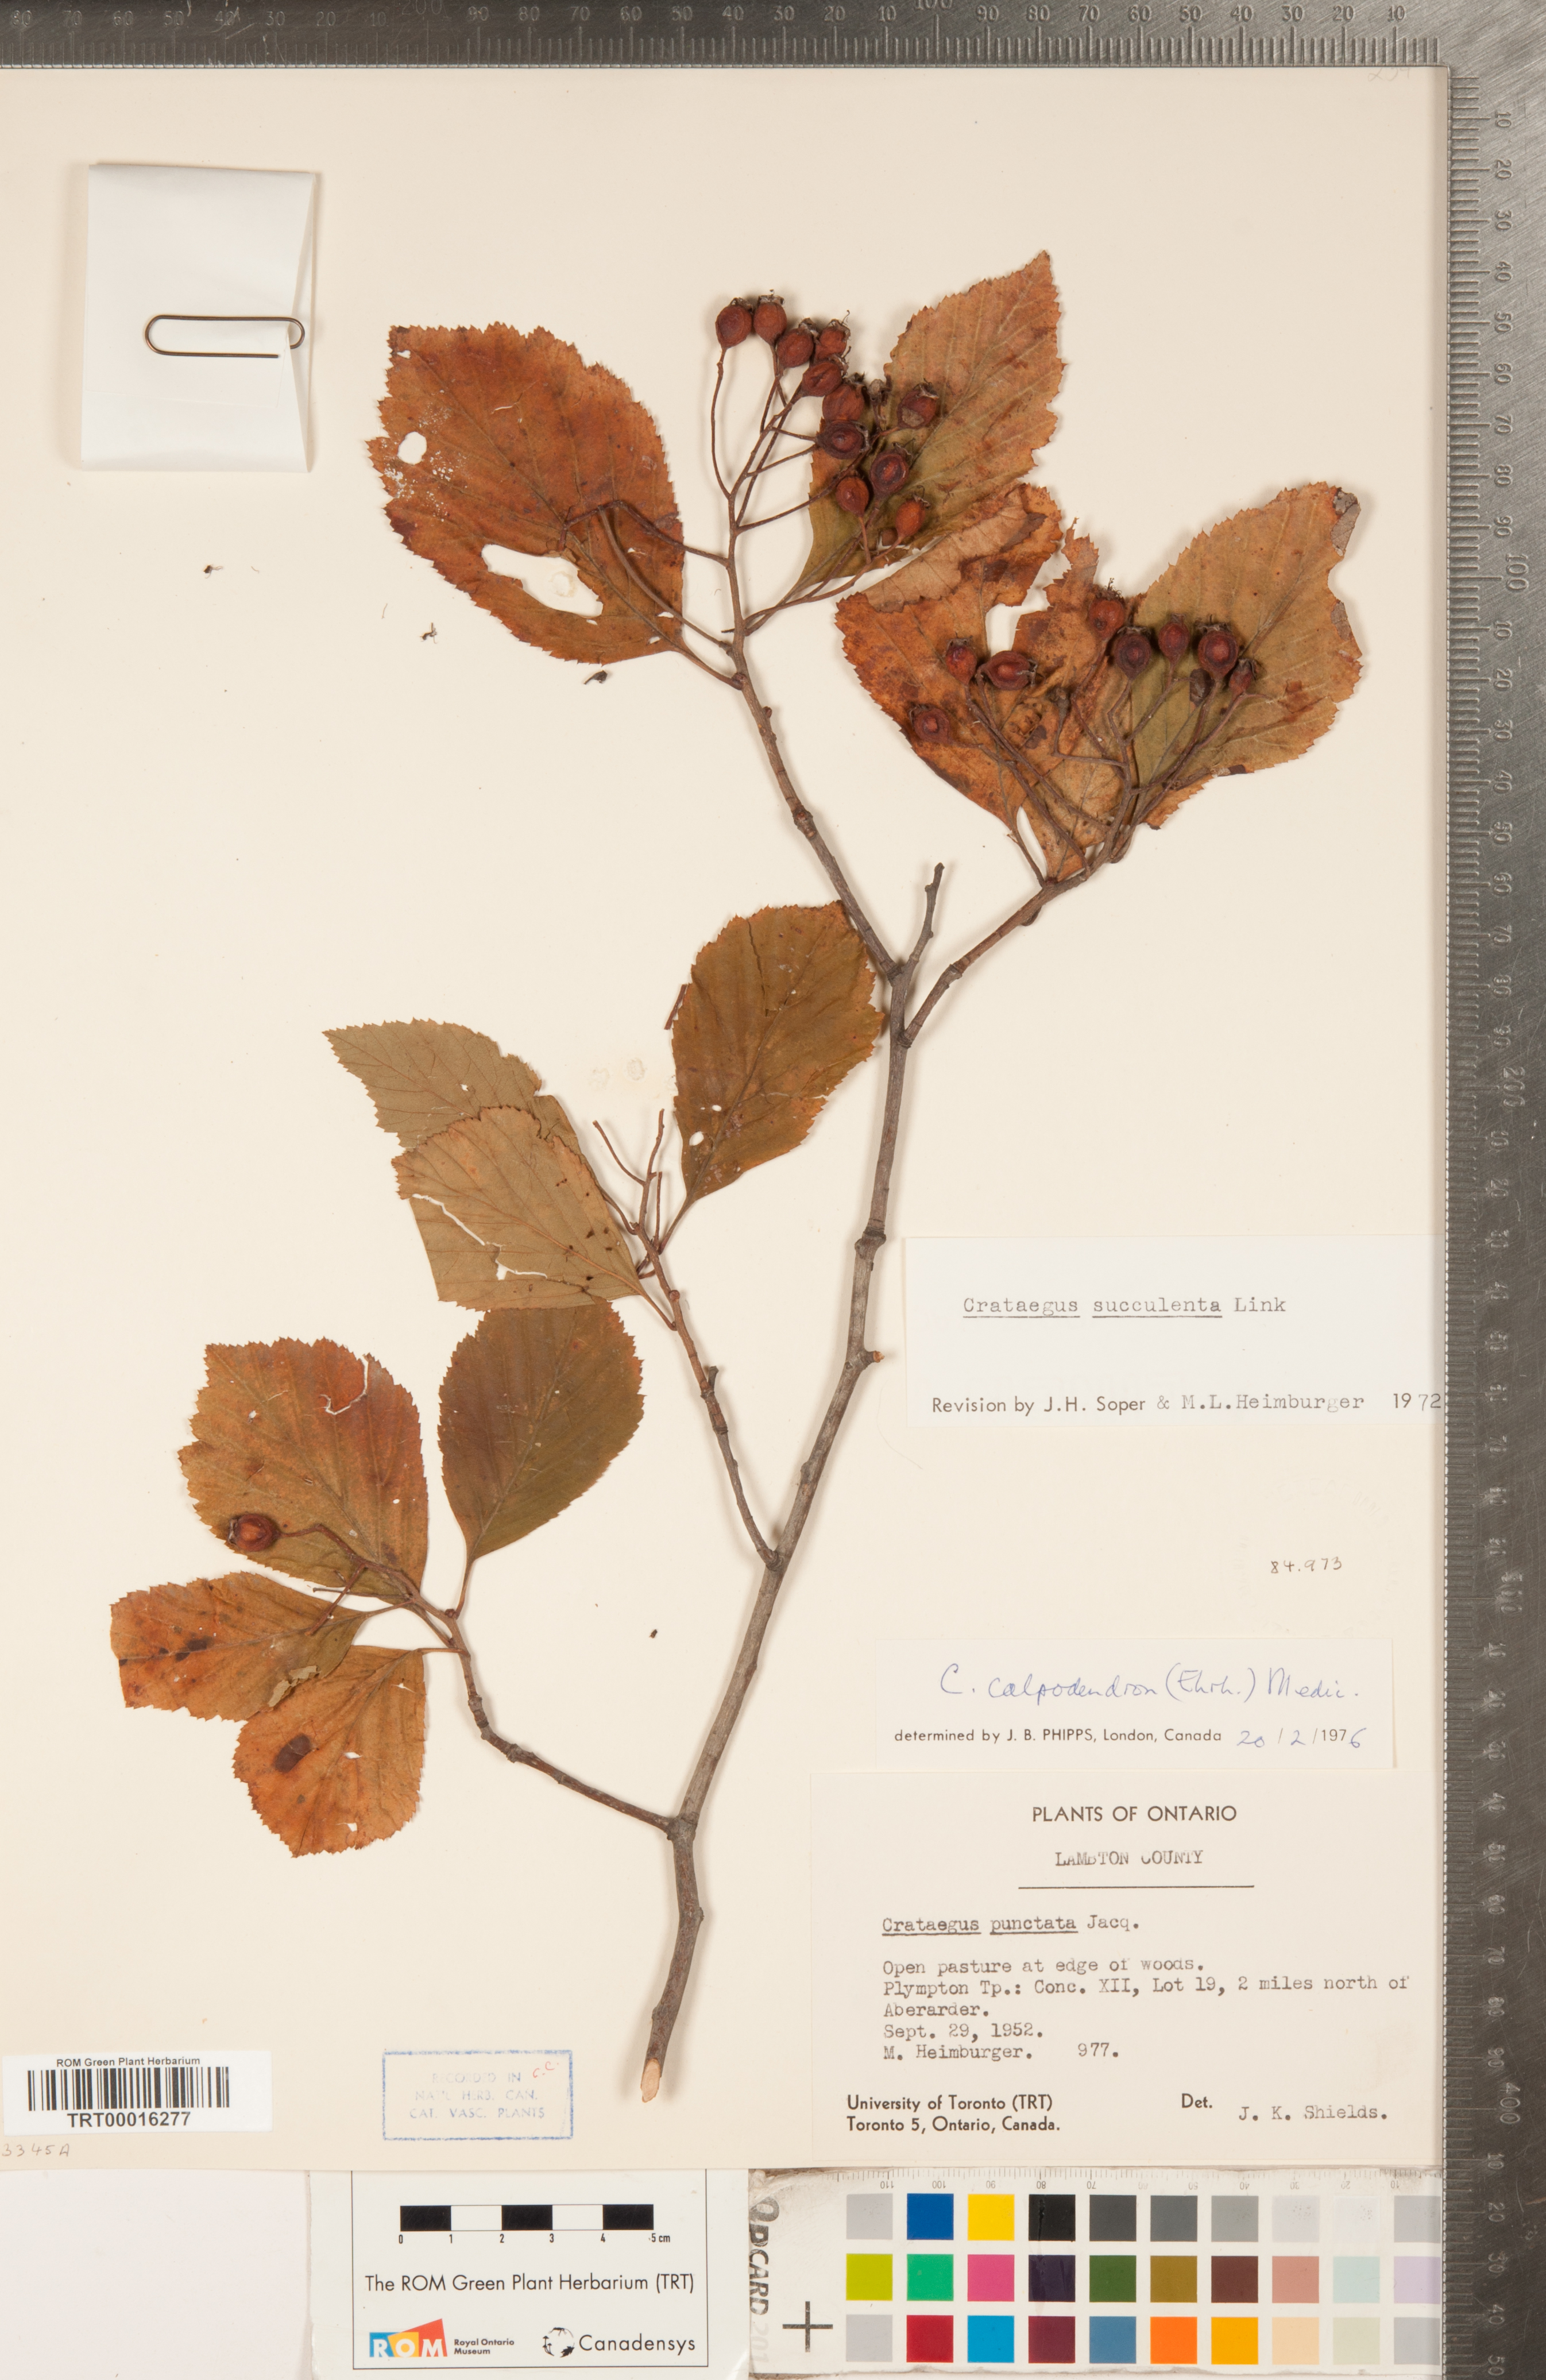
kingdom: Plantae
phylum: Tracheophyta
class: Magnoliopsida
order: Rosales
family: Rosaceae
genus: Crataegus
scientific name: Crataegus calpodendron
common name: Pear hawthorn
